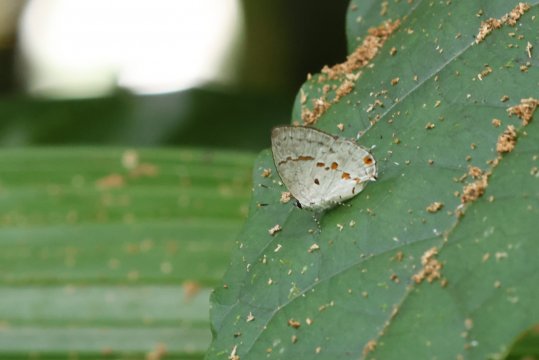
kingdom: Animalia
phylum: Arthropoda
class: Insecta
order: Lepidoptera
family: Lycaenidae
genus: Thecla
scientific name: Thecla celmus
